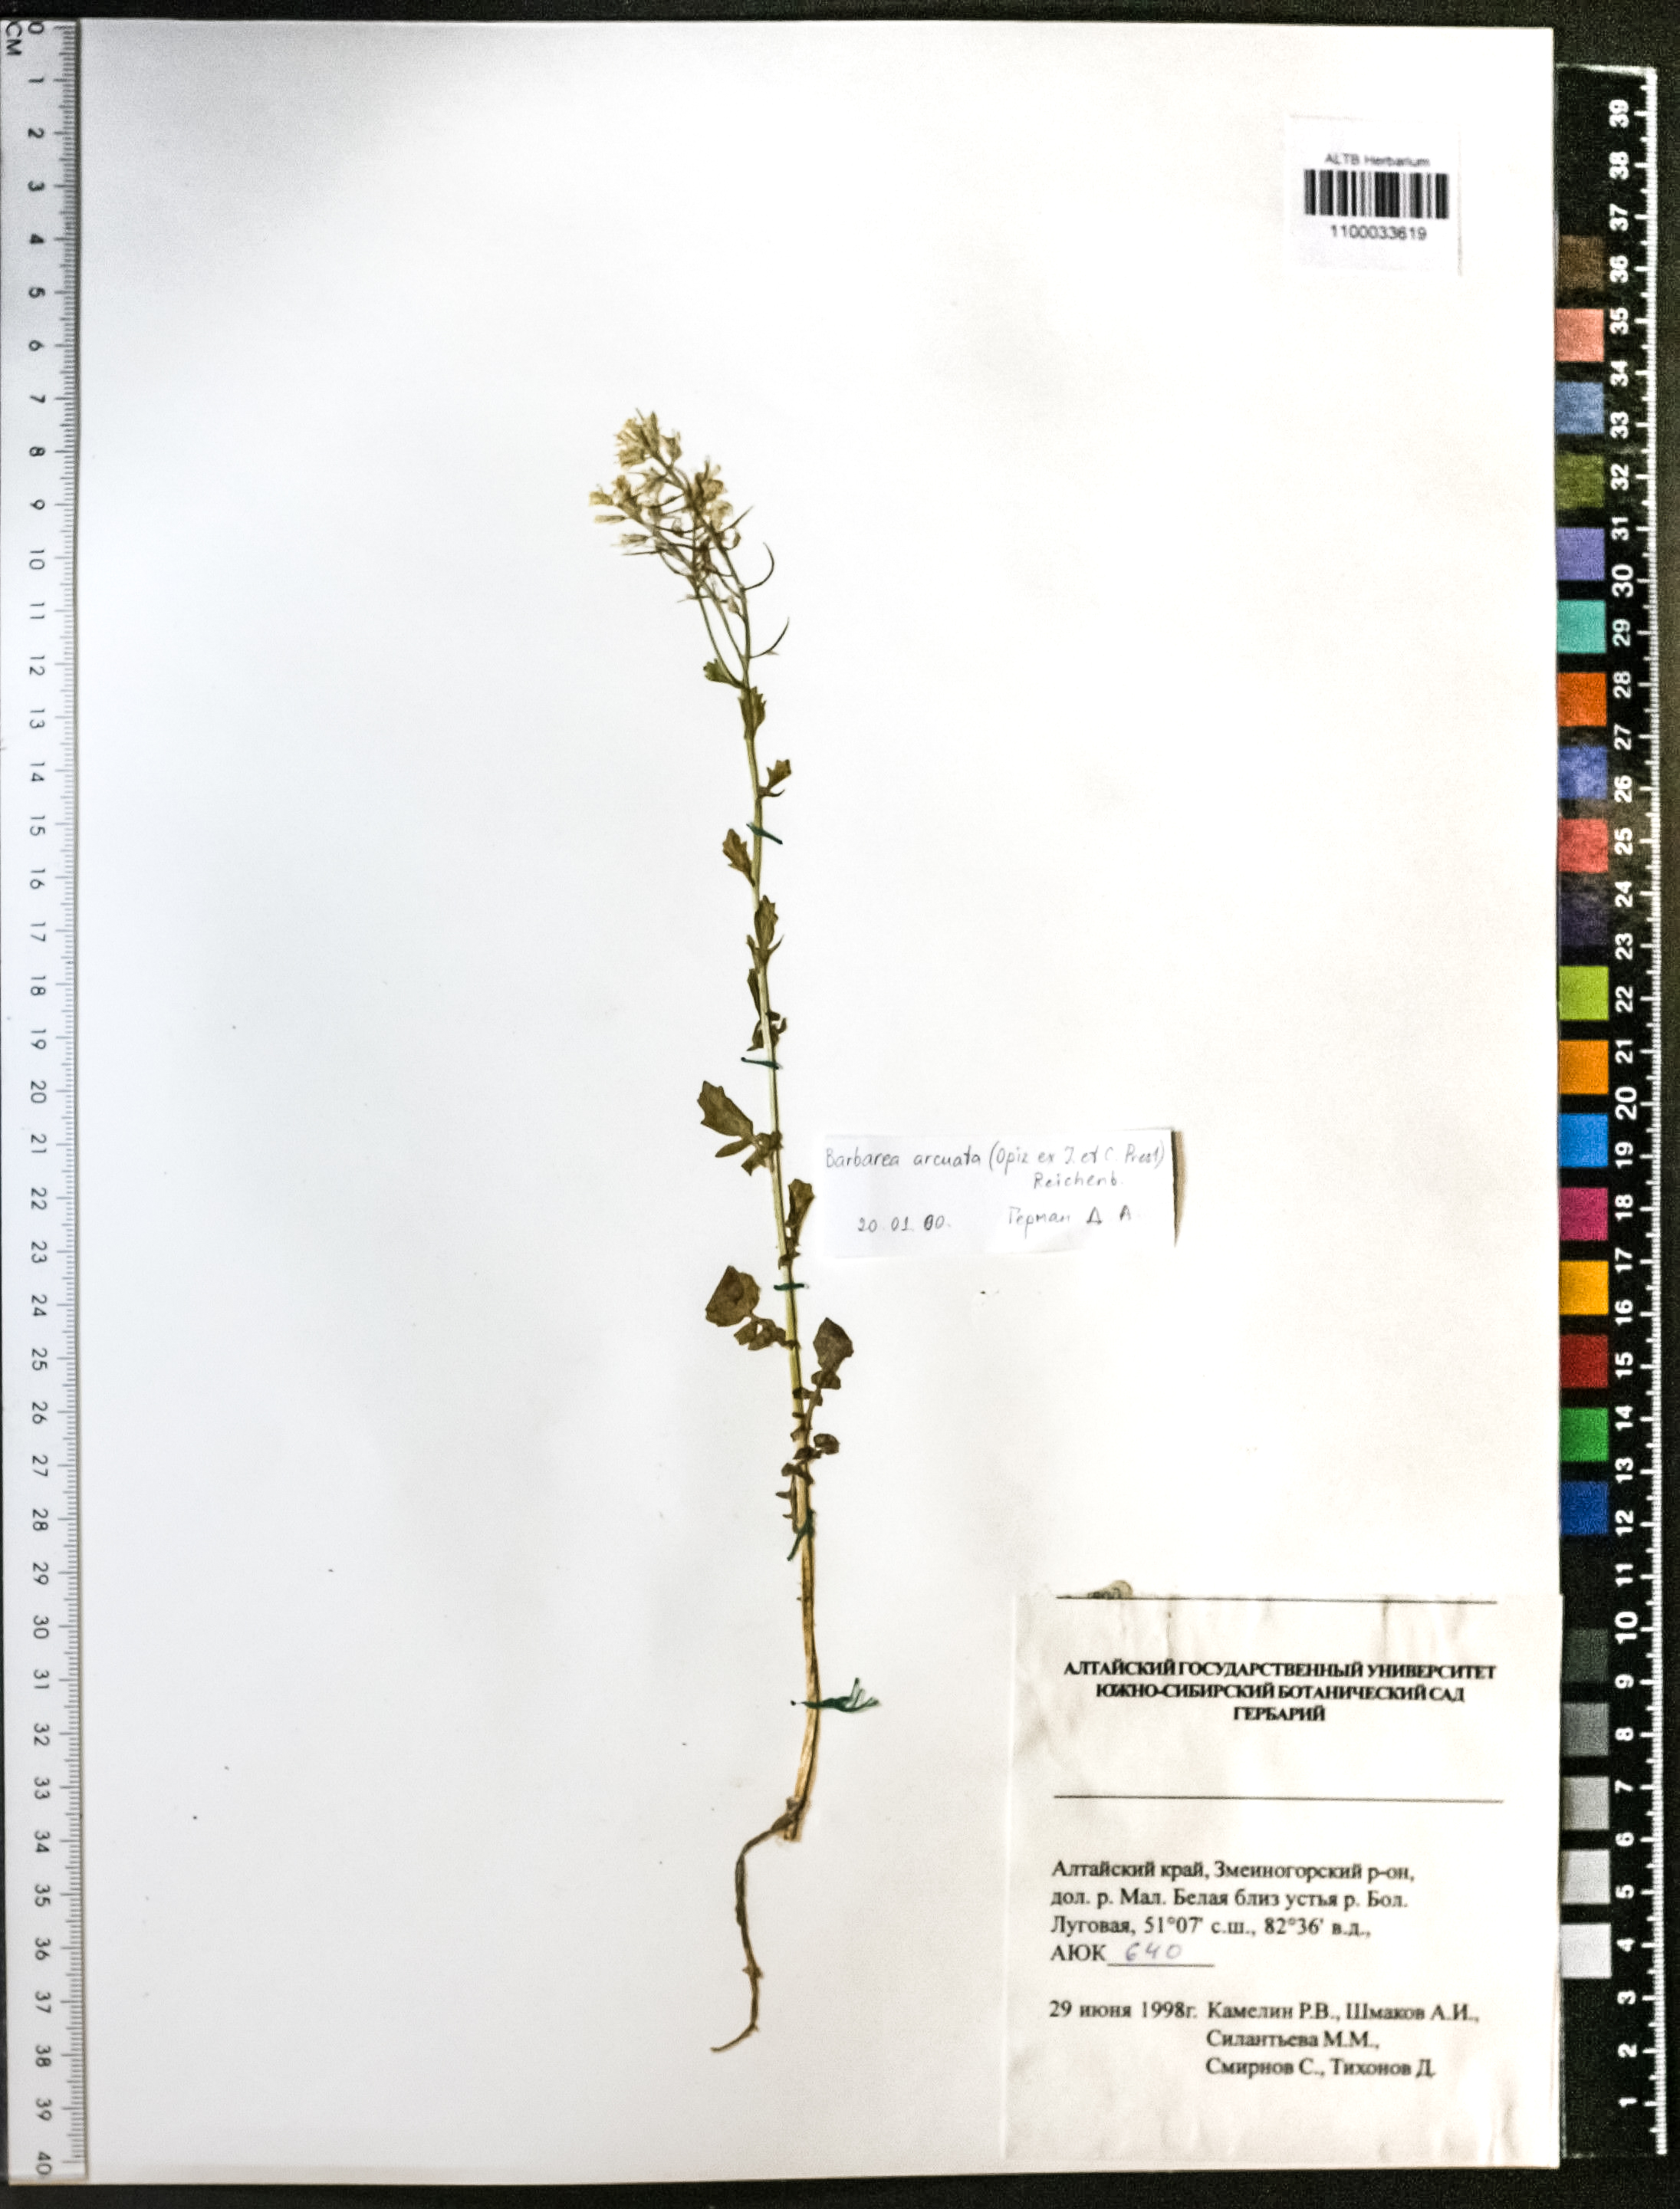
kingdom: Plantae
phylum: Tracheophyta
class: Magnoliopsida
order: Brassicales
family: Brassicaceae
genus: Barbarea
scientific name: Barbarea vulgaris
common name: Cressy-greens
